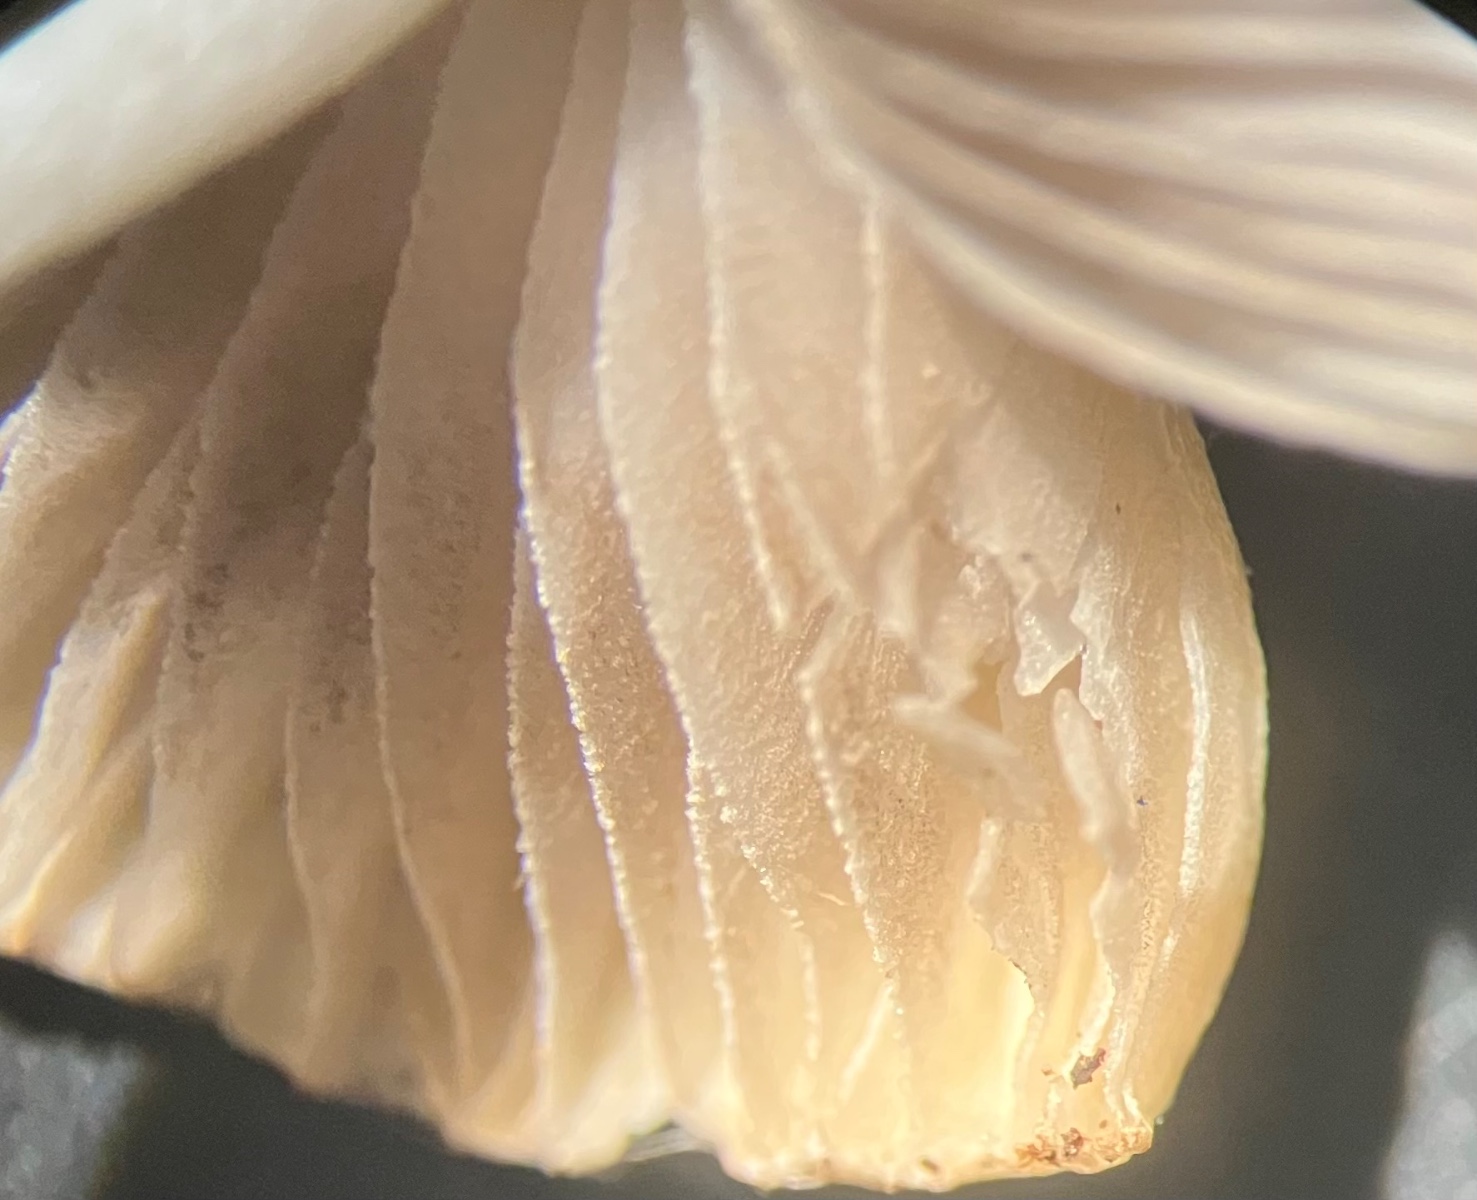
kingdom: Fungi
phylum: Basidiomycota
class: Agaricomycetes
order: Agaricales
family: Inocybaceae
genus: Inocybe
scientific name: Inocybe
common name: trævlhat
